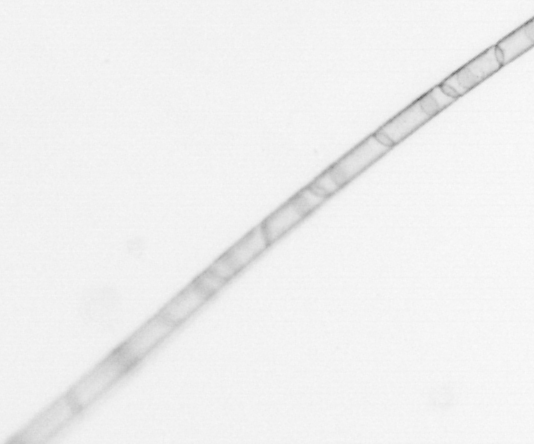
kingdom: Chromista
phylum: Ochrophyta
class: Bacillariophyceae
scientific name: Bacillariophyceae
